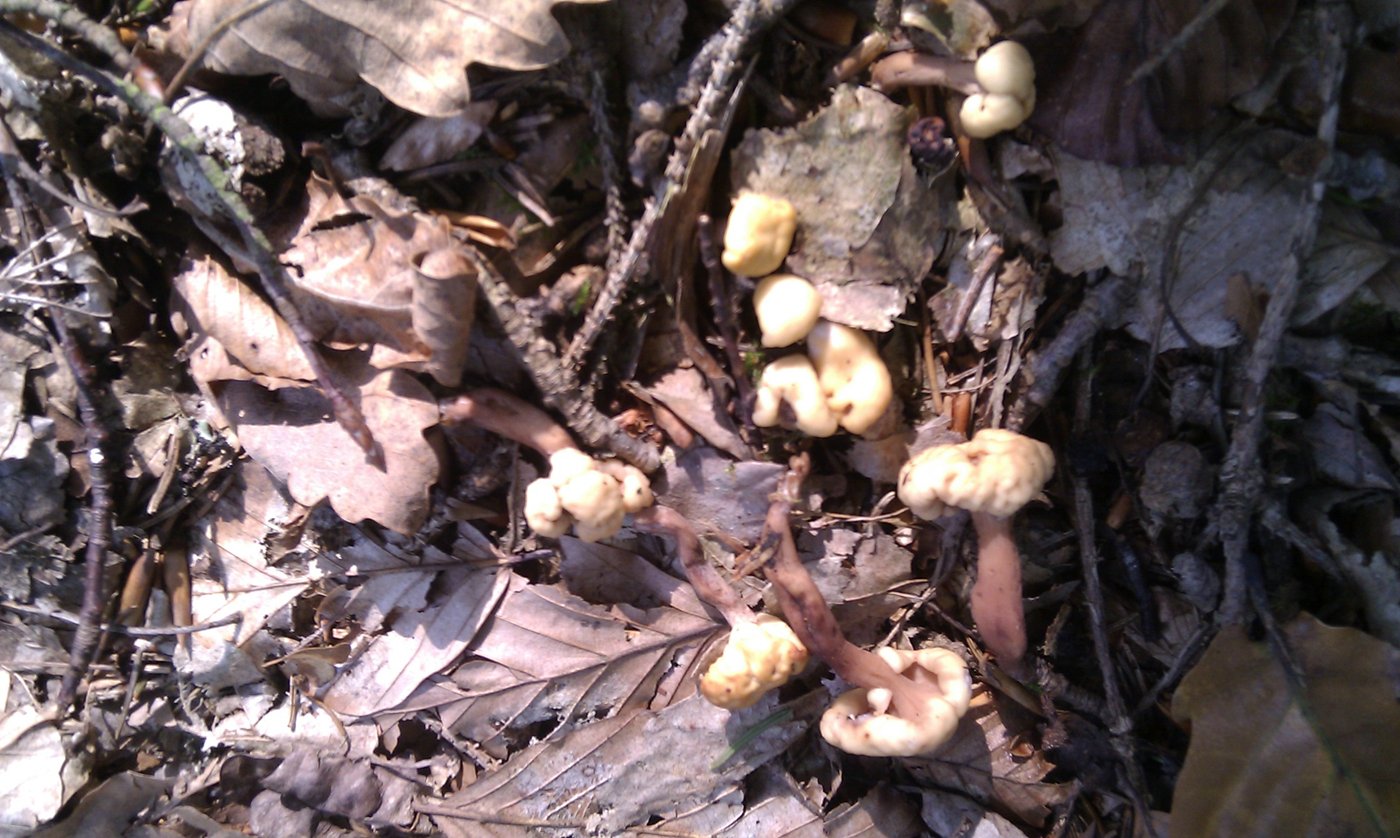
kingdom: Fungi
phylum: Ascomycota
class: Leotiomycetes
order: Rhytismatales
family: Cudoniaceae
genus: Cudonia
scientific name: Cudonia circinans
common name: hekserings-hjelmmorkel
